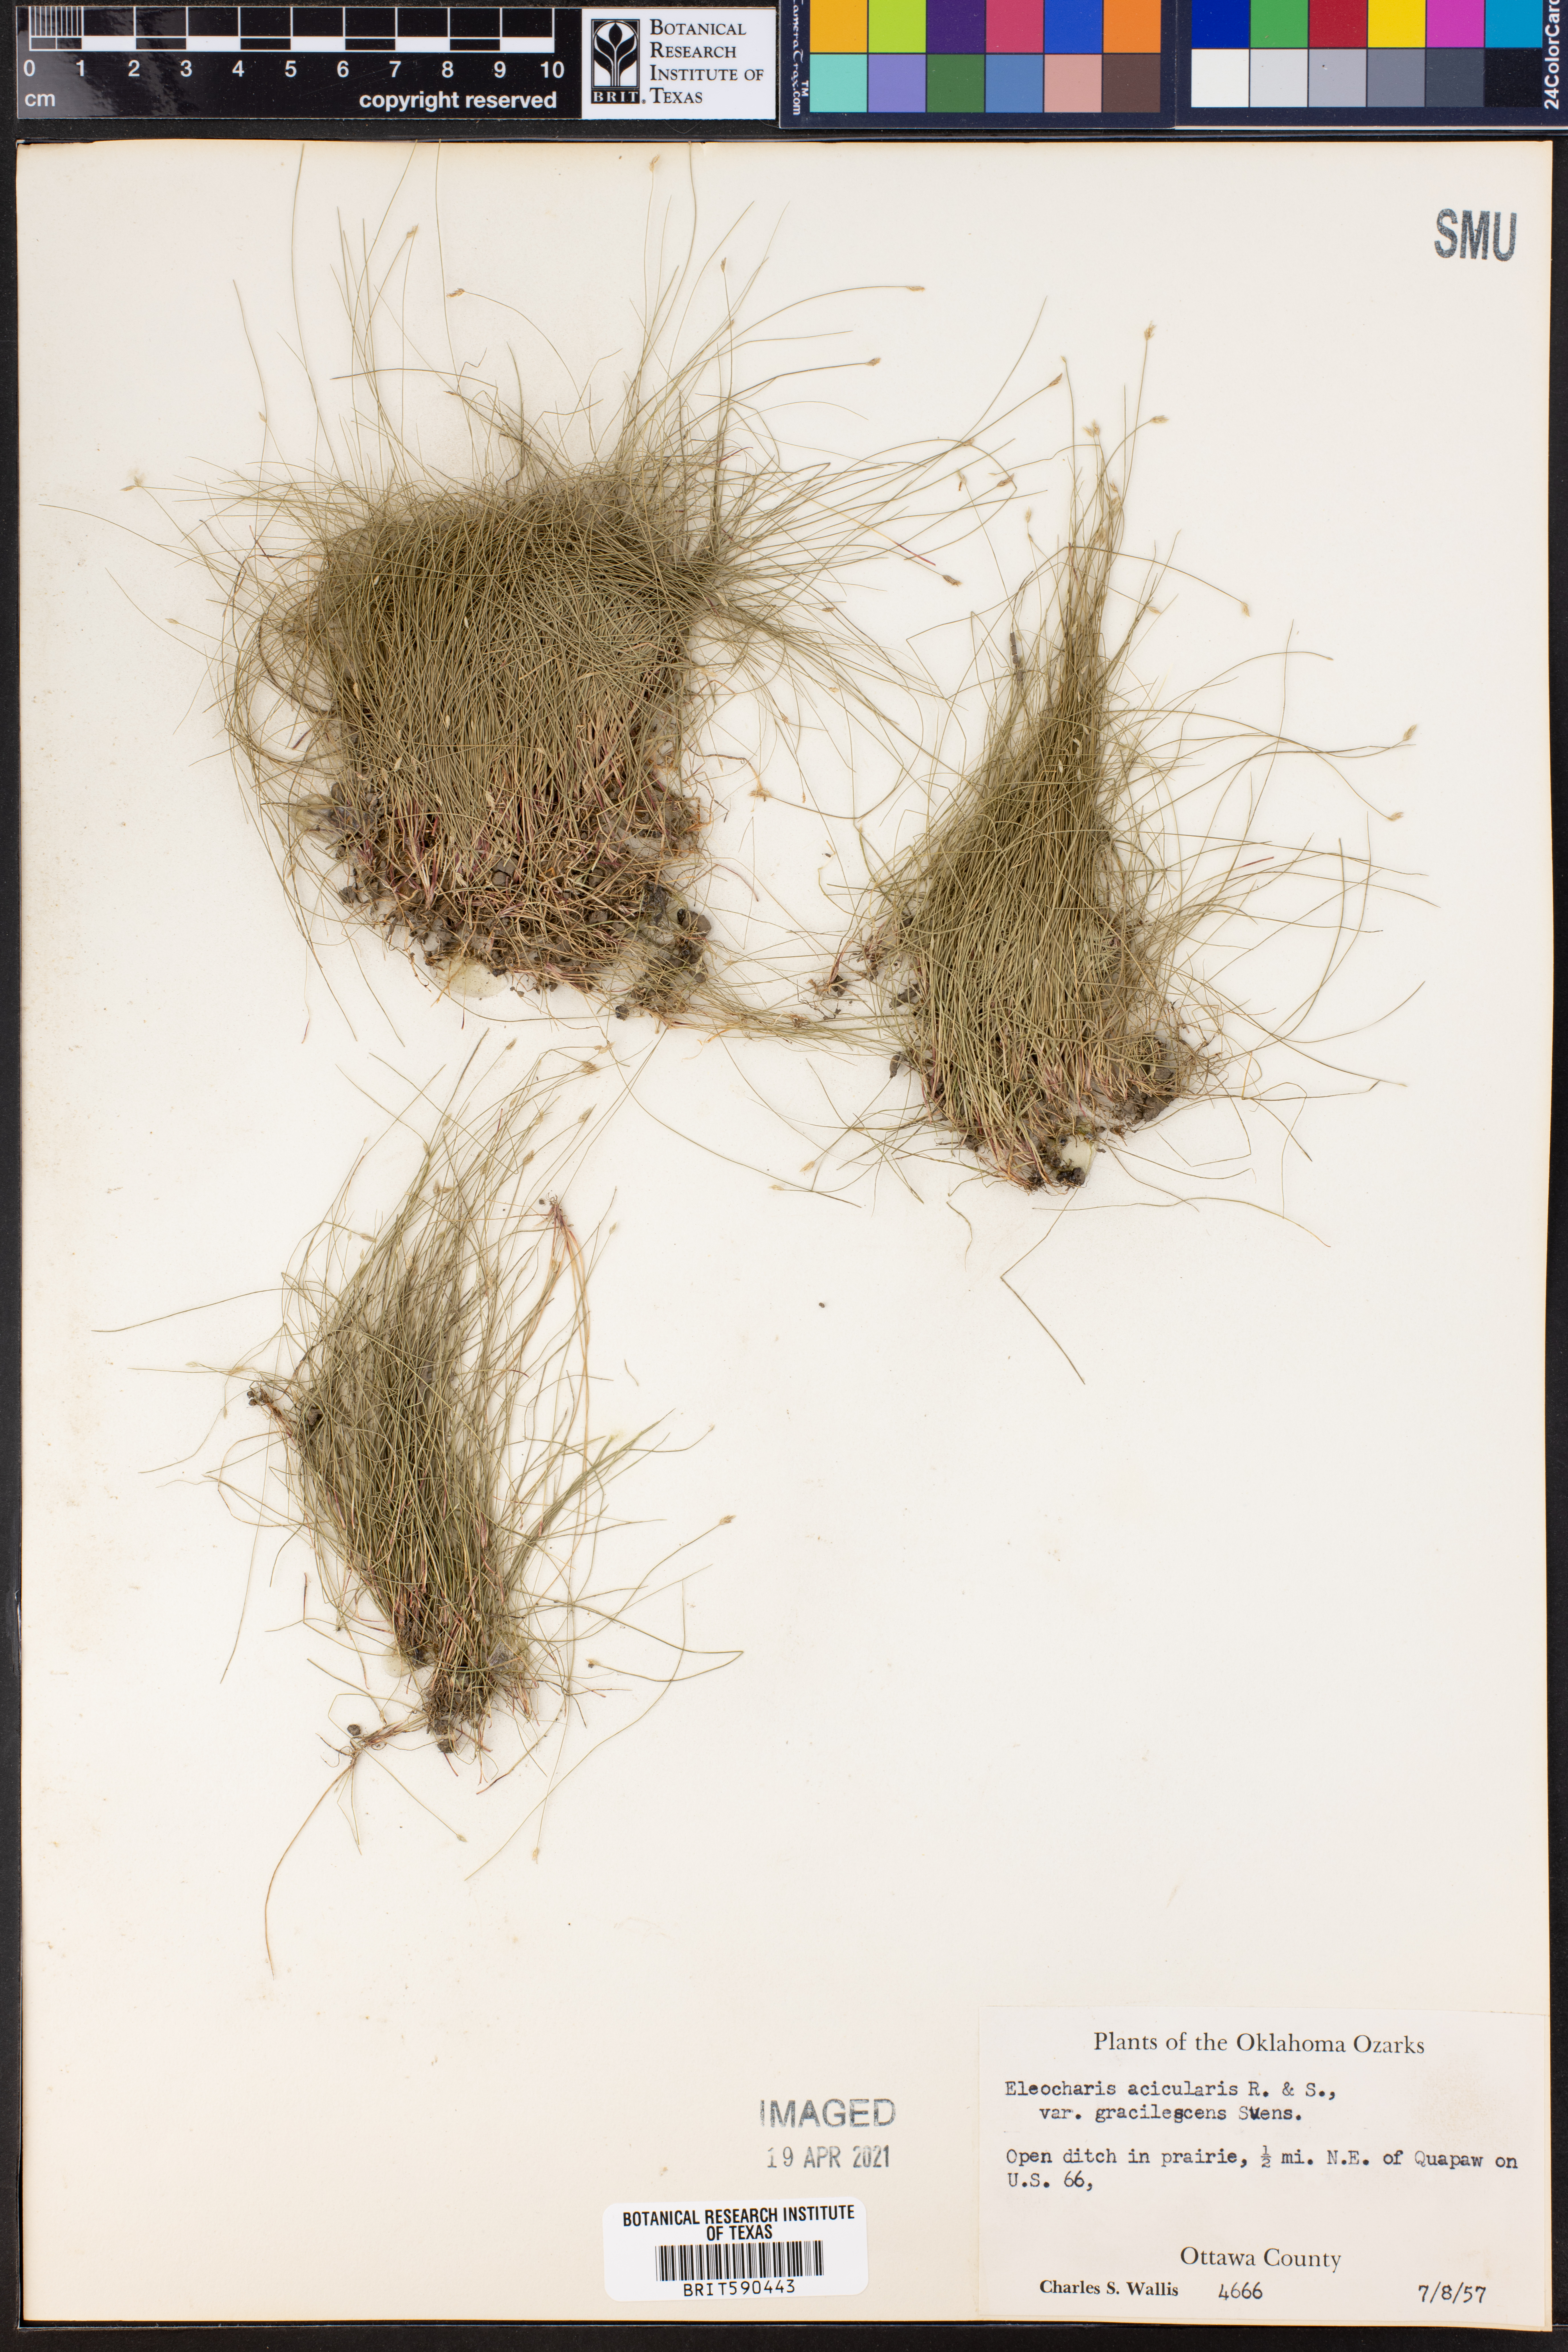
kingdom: Plantae
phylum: Tracheophyta
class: Liliopsida
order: Poales
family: Cyperaceae
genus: Eleocharis
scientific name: Eleocharis acicularis
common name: Needle spike-rush
